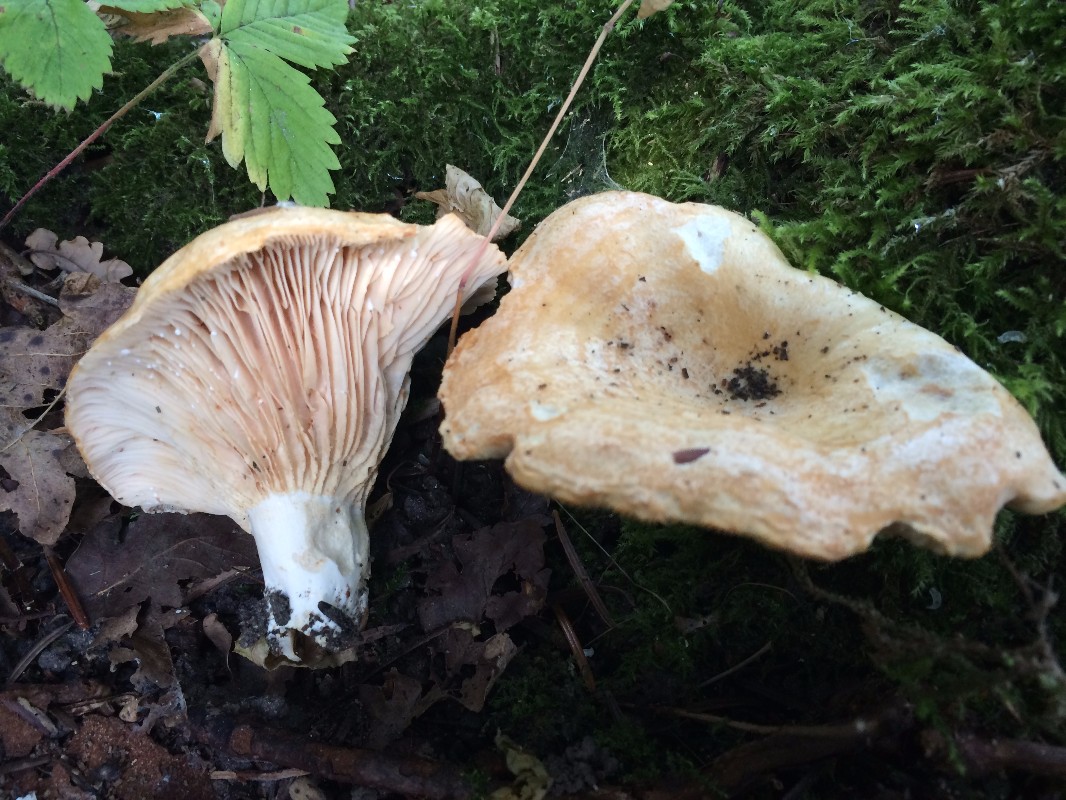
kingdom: Fungi
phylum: Basidiomycota
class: Agaricomycetes
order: Russulales
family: Russulaceae
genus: Lactarius
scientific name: Lactarius acerrimus
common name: brændende mælkehat
